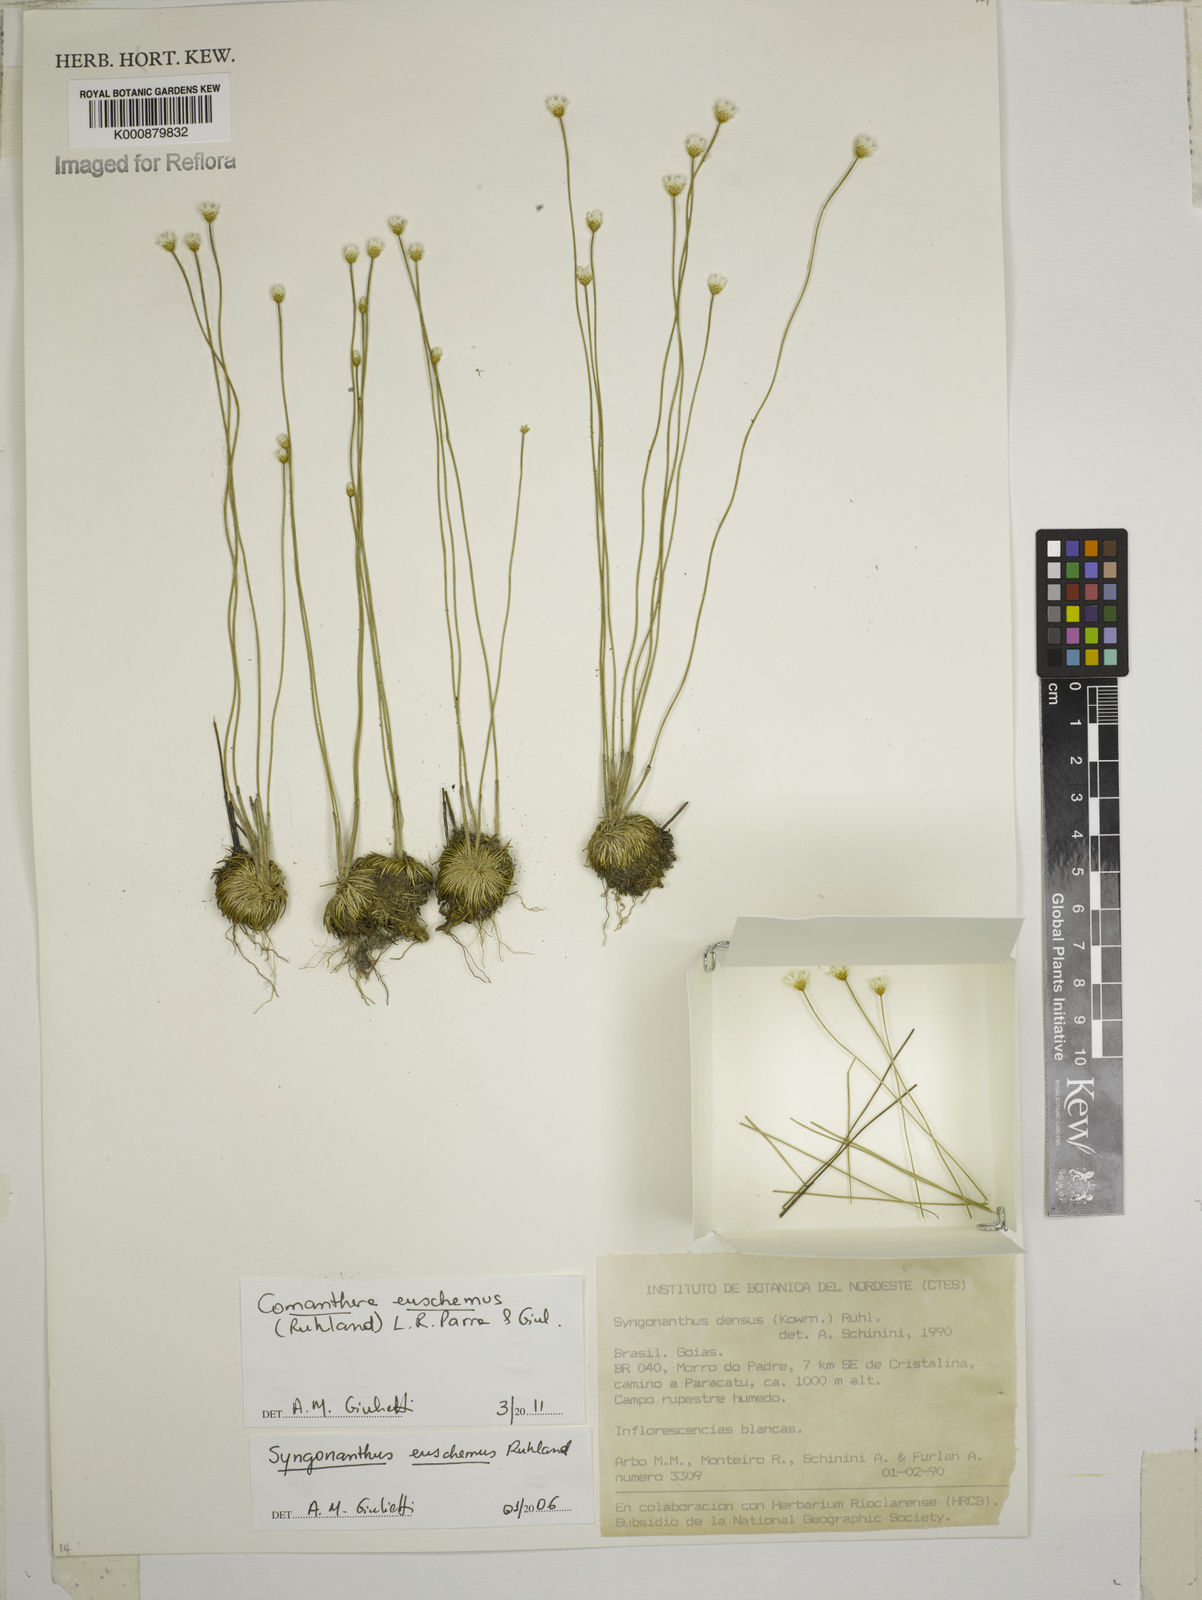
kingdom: Plantae
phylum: Tracheophyta
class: Liliopsida
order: Poales
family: Eriocaulaceae
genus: Comanthera
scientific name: Comanthera euschemus
